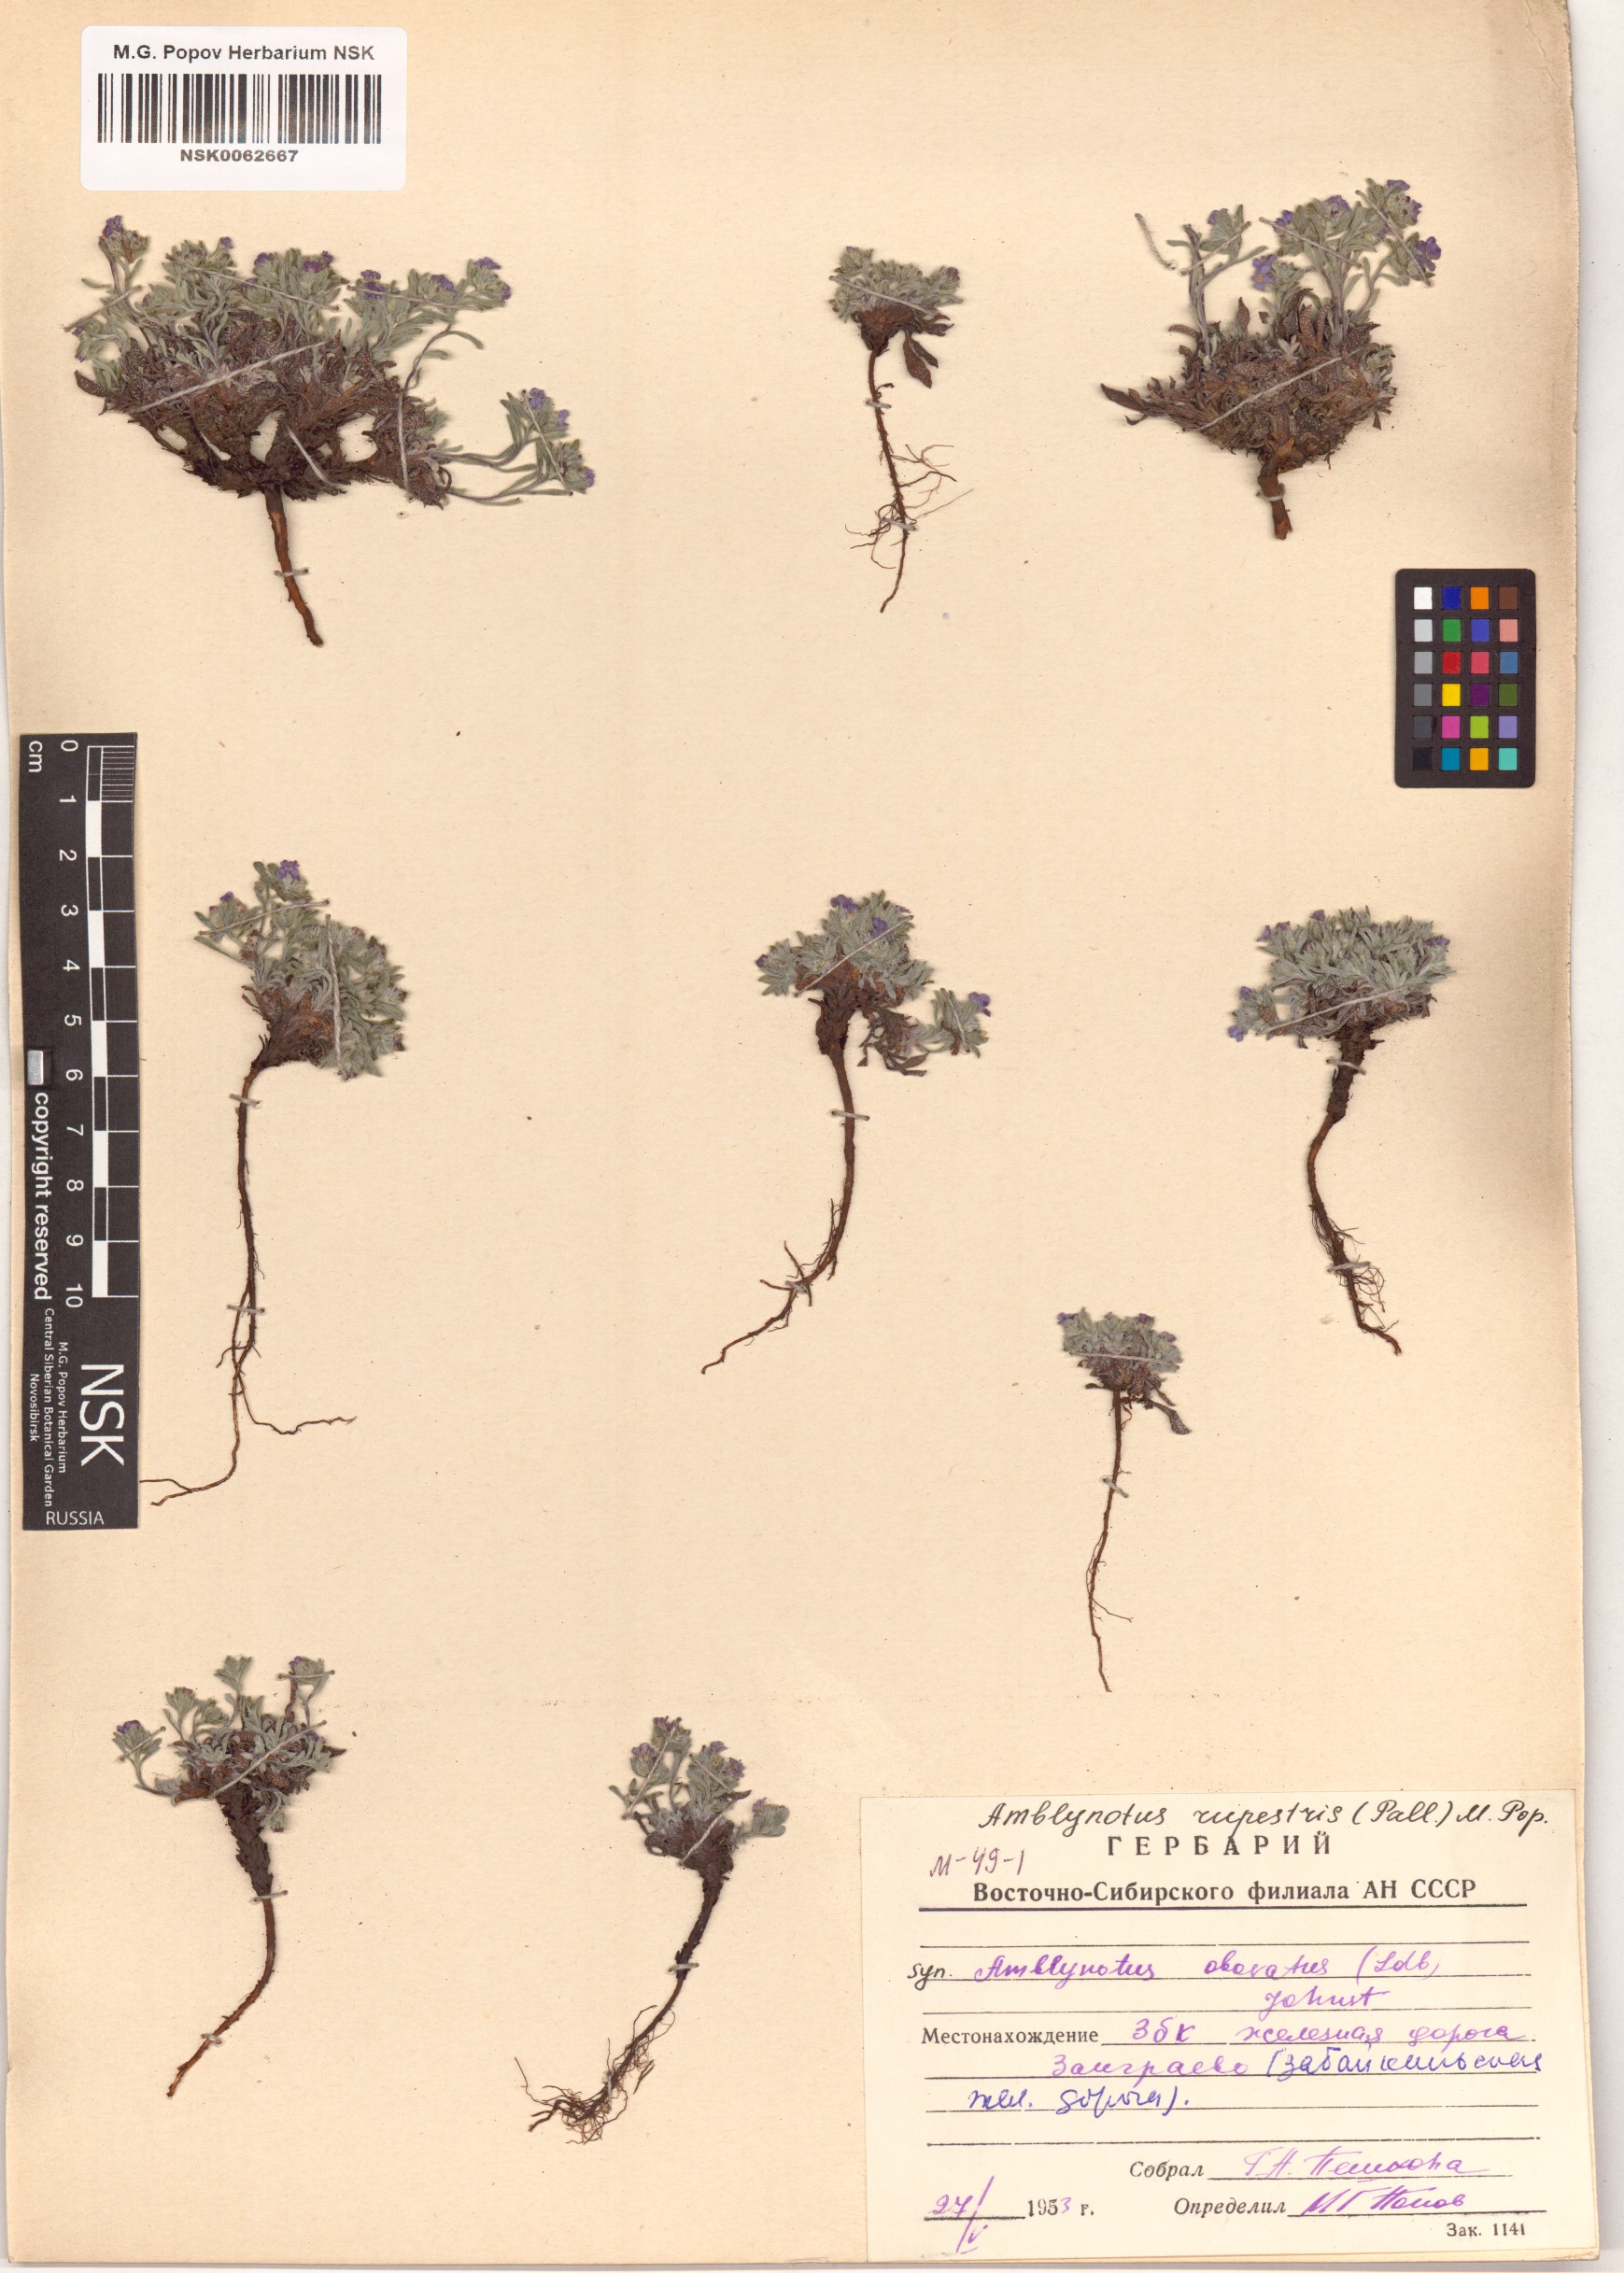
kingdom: Plantae
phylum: Tracheophyta
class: Magnoliopsida
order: Boraginales
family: Boraginaceae
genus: Eritrichium
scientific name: Eritrichium rupestre
